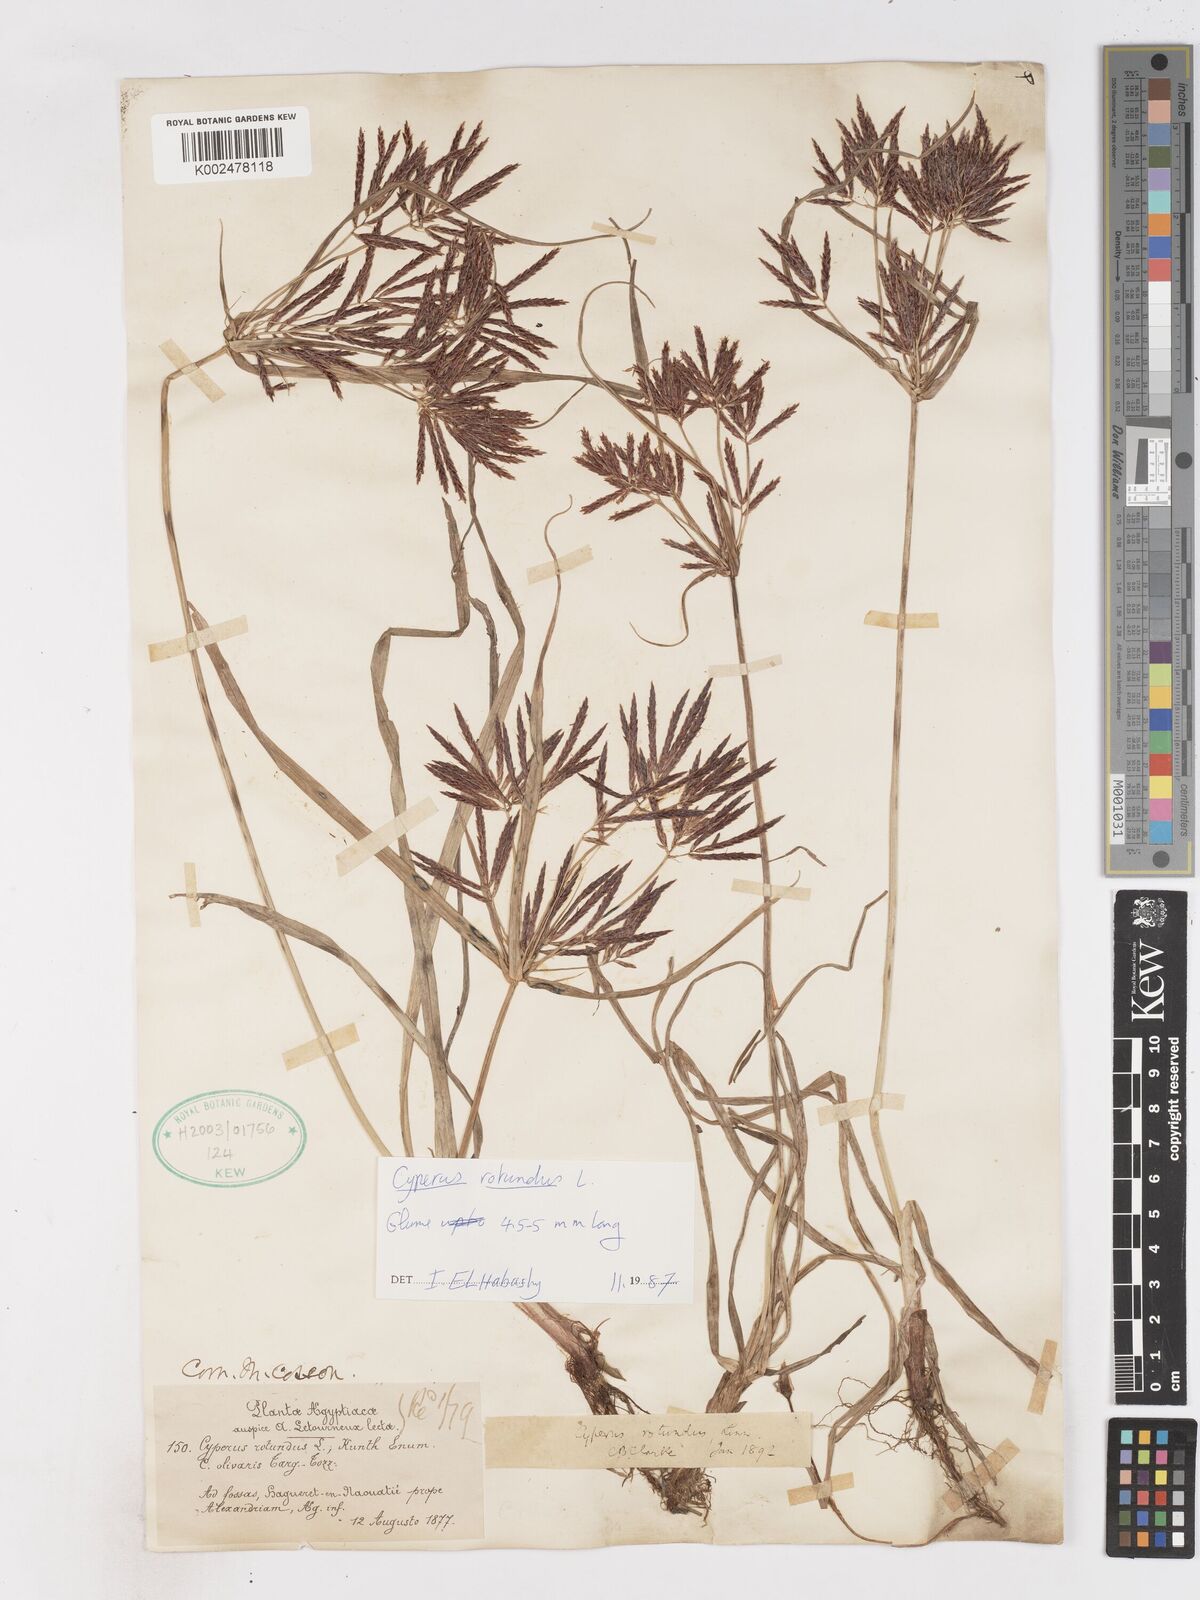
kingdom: Plantae
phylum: Tracheophyta
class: Liliopsida
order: Poales
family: Cyperaceae
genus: Cyperus
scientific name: Cyperus rotundus
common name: Nutgrass
